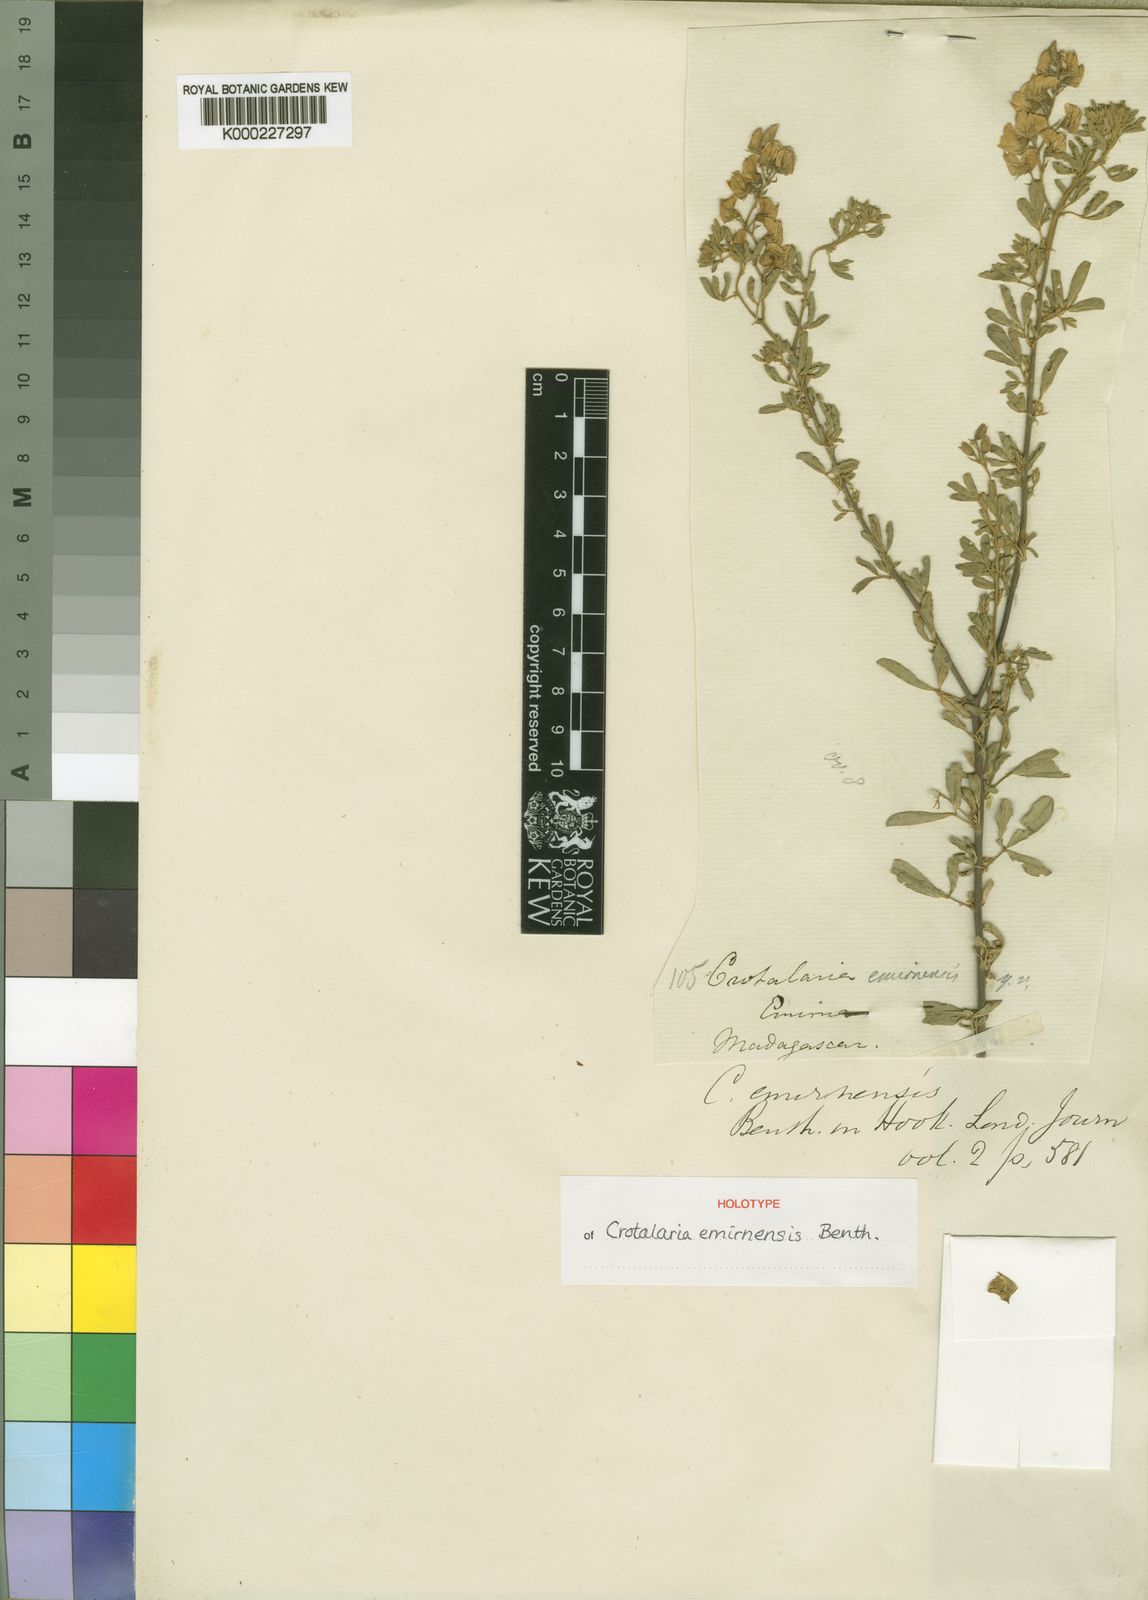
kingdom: Plantae
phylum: Tracheophyta
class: Magnoliopsida
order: Fabales
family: Fabaceae
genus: Crotalaria
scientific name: Crotalaria emirnensis
